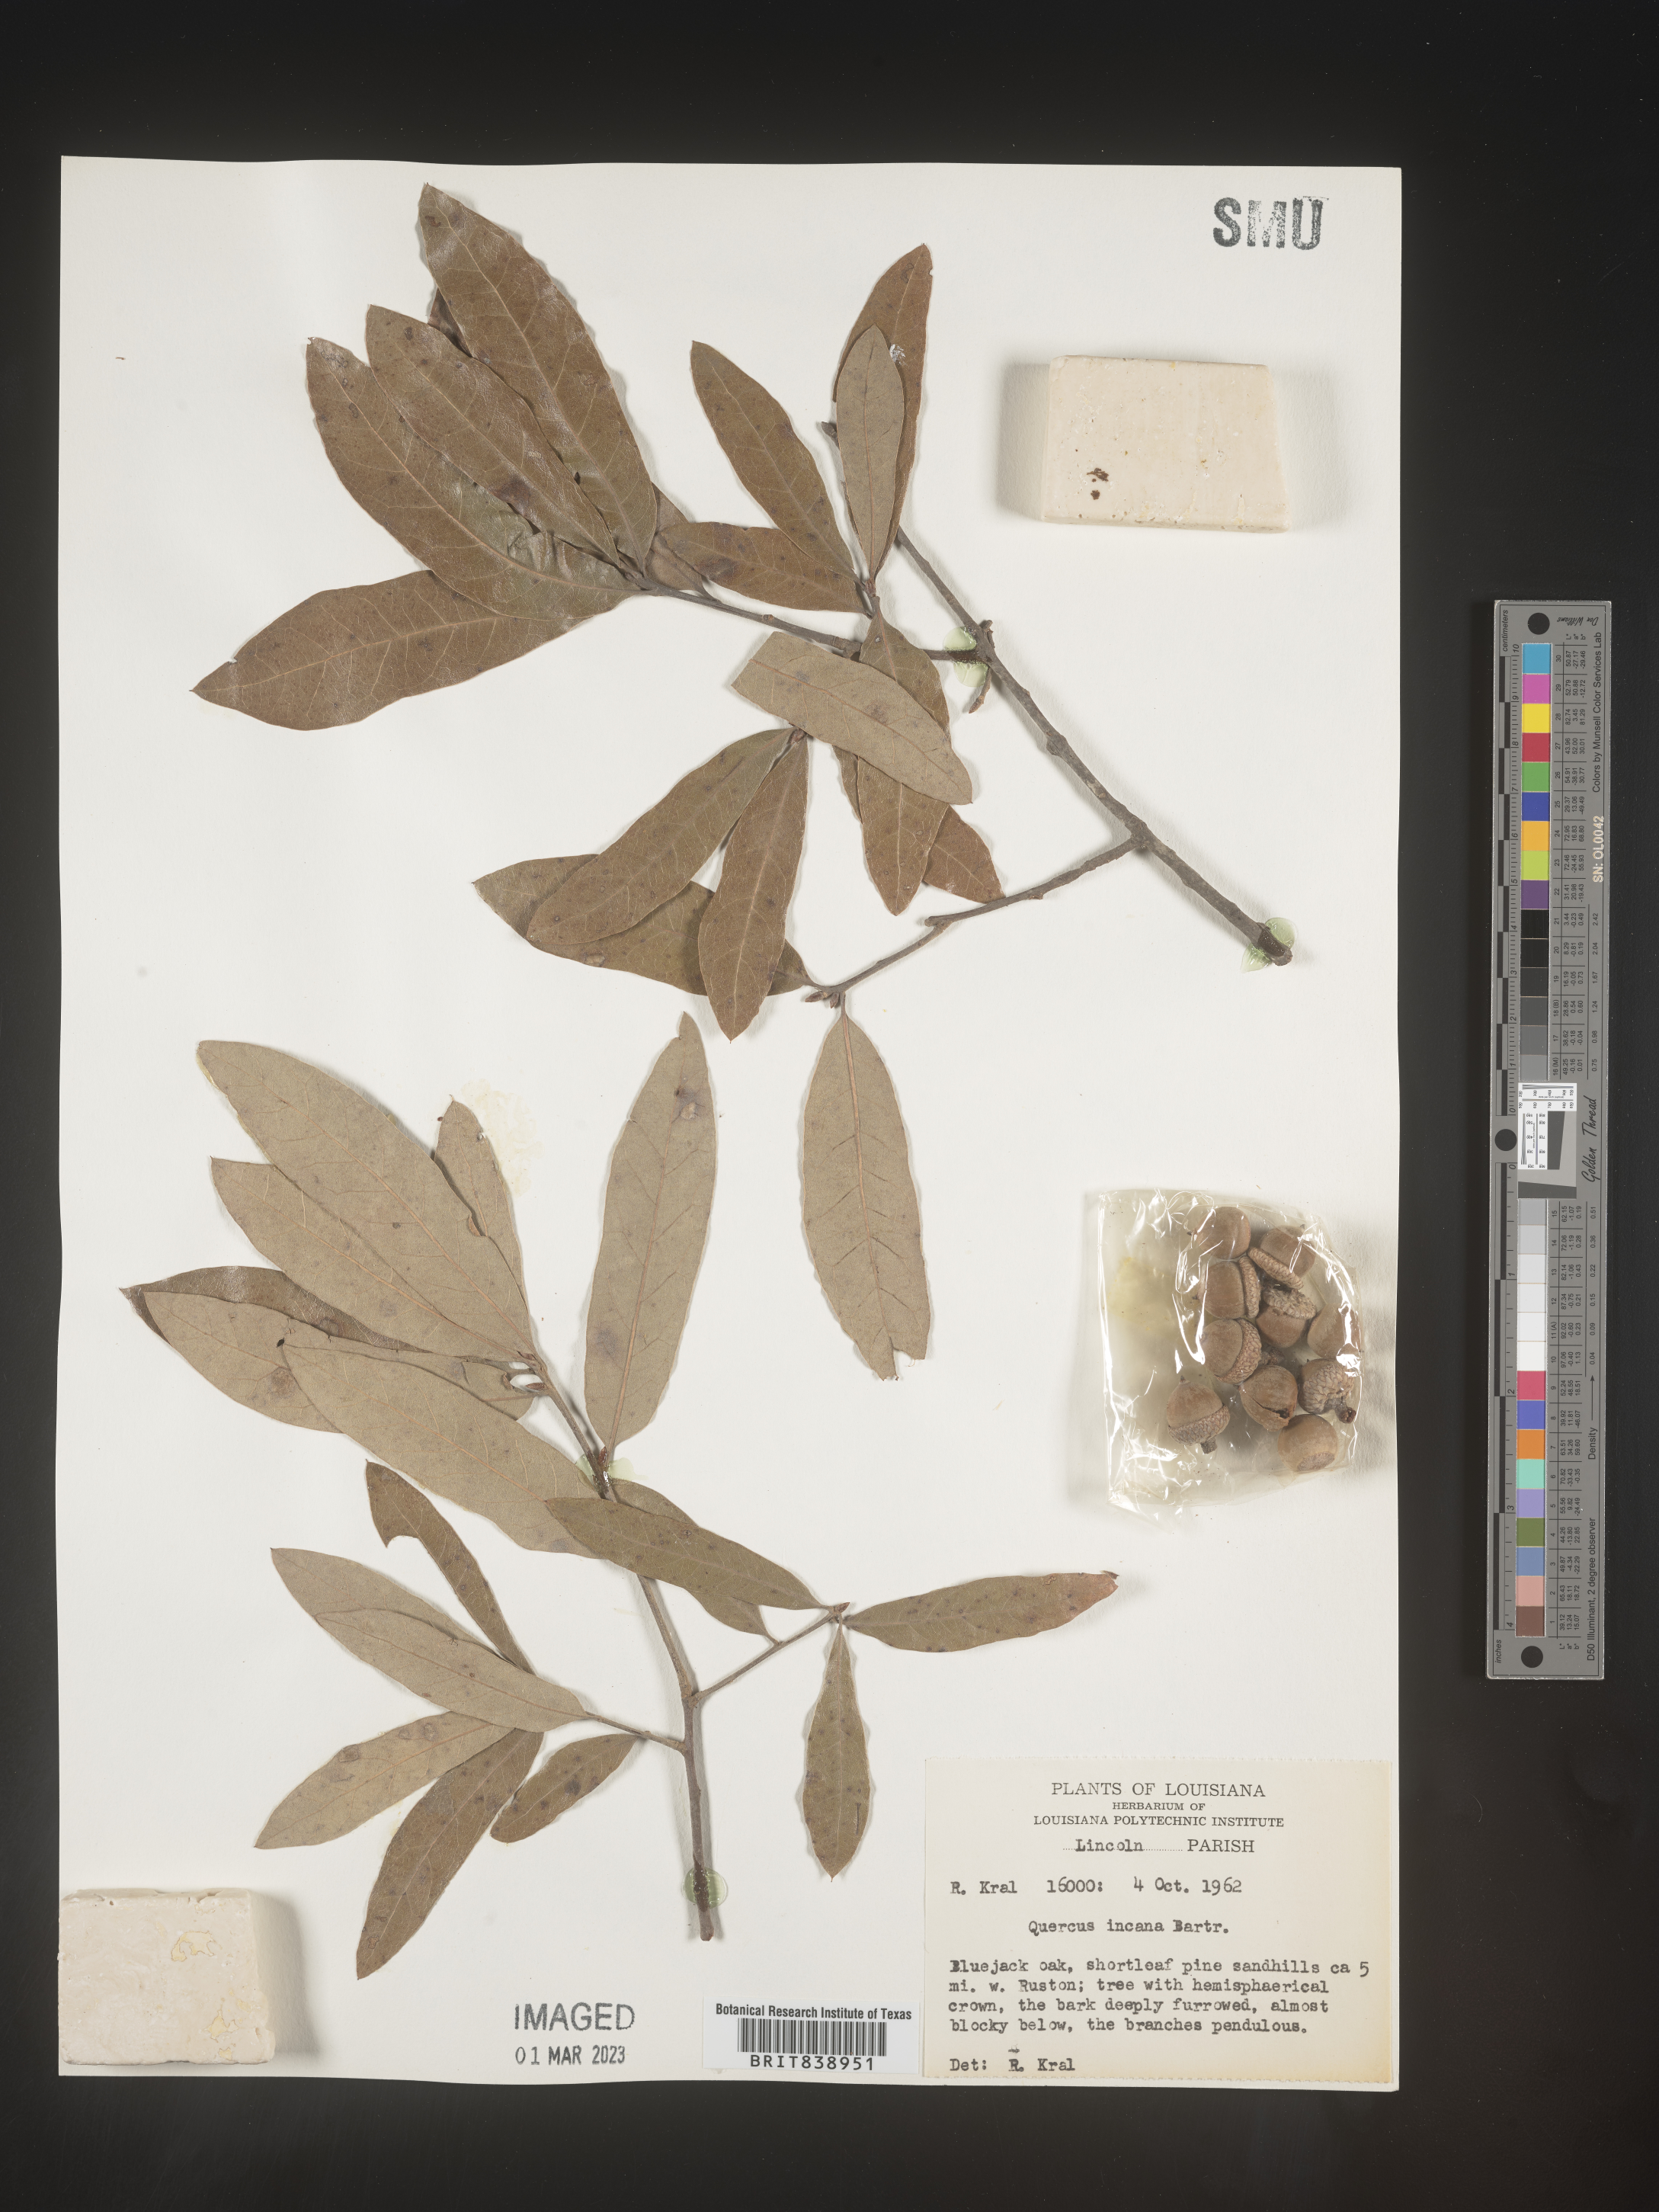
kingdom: Plantae
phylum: Tracheophyta
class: Magnoliopsida
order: Fagales
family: Fagaceae
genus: Quercus
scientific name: Quercus incana
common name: Bluejack oak
